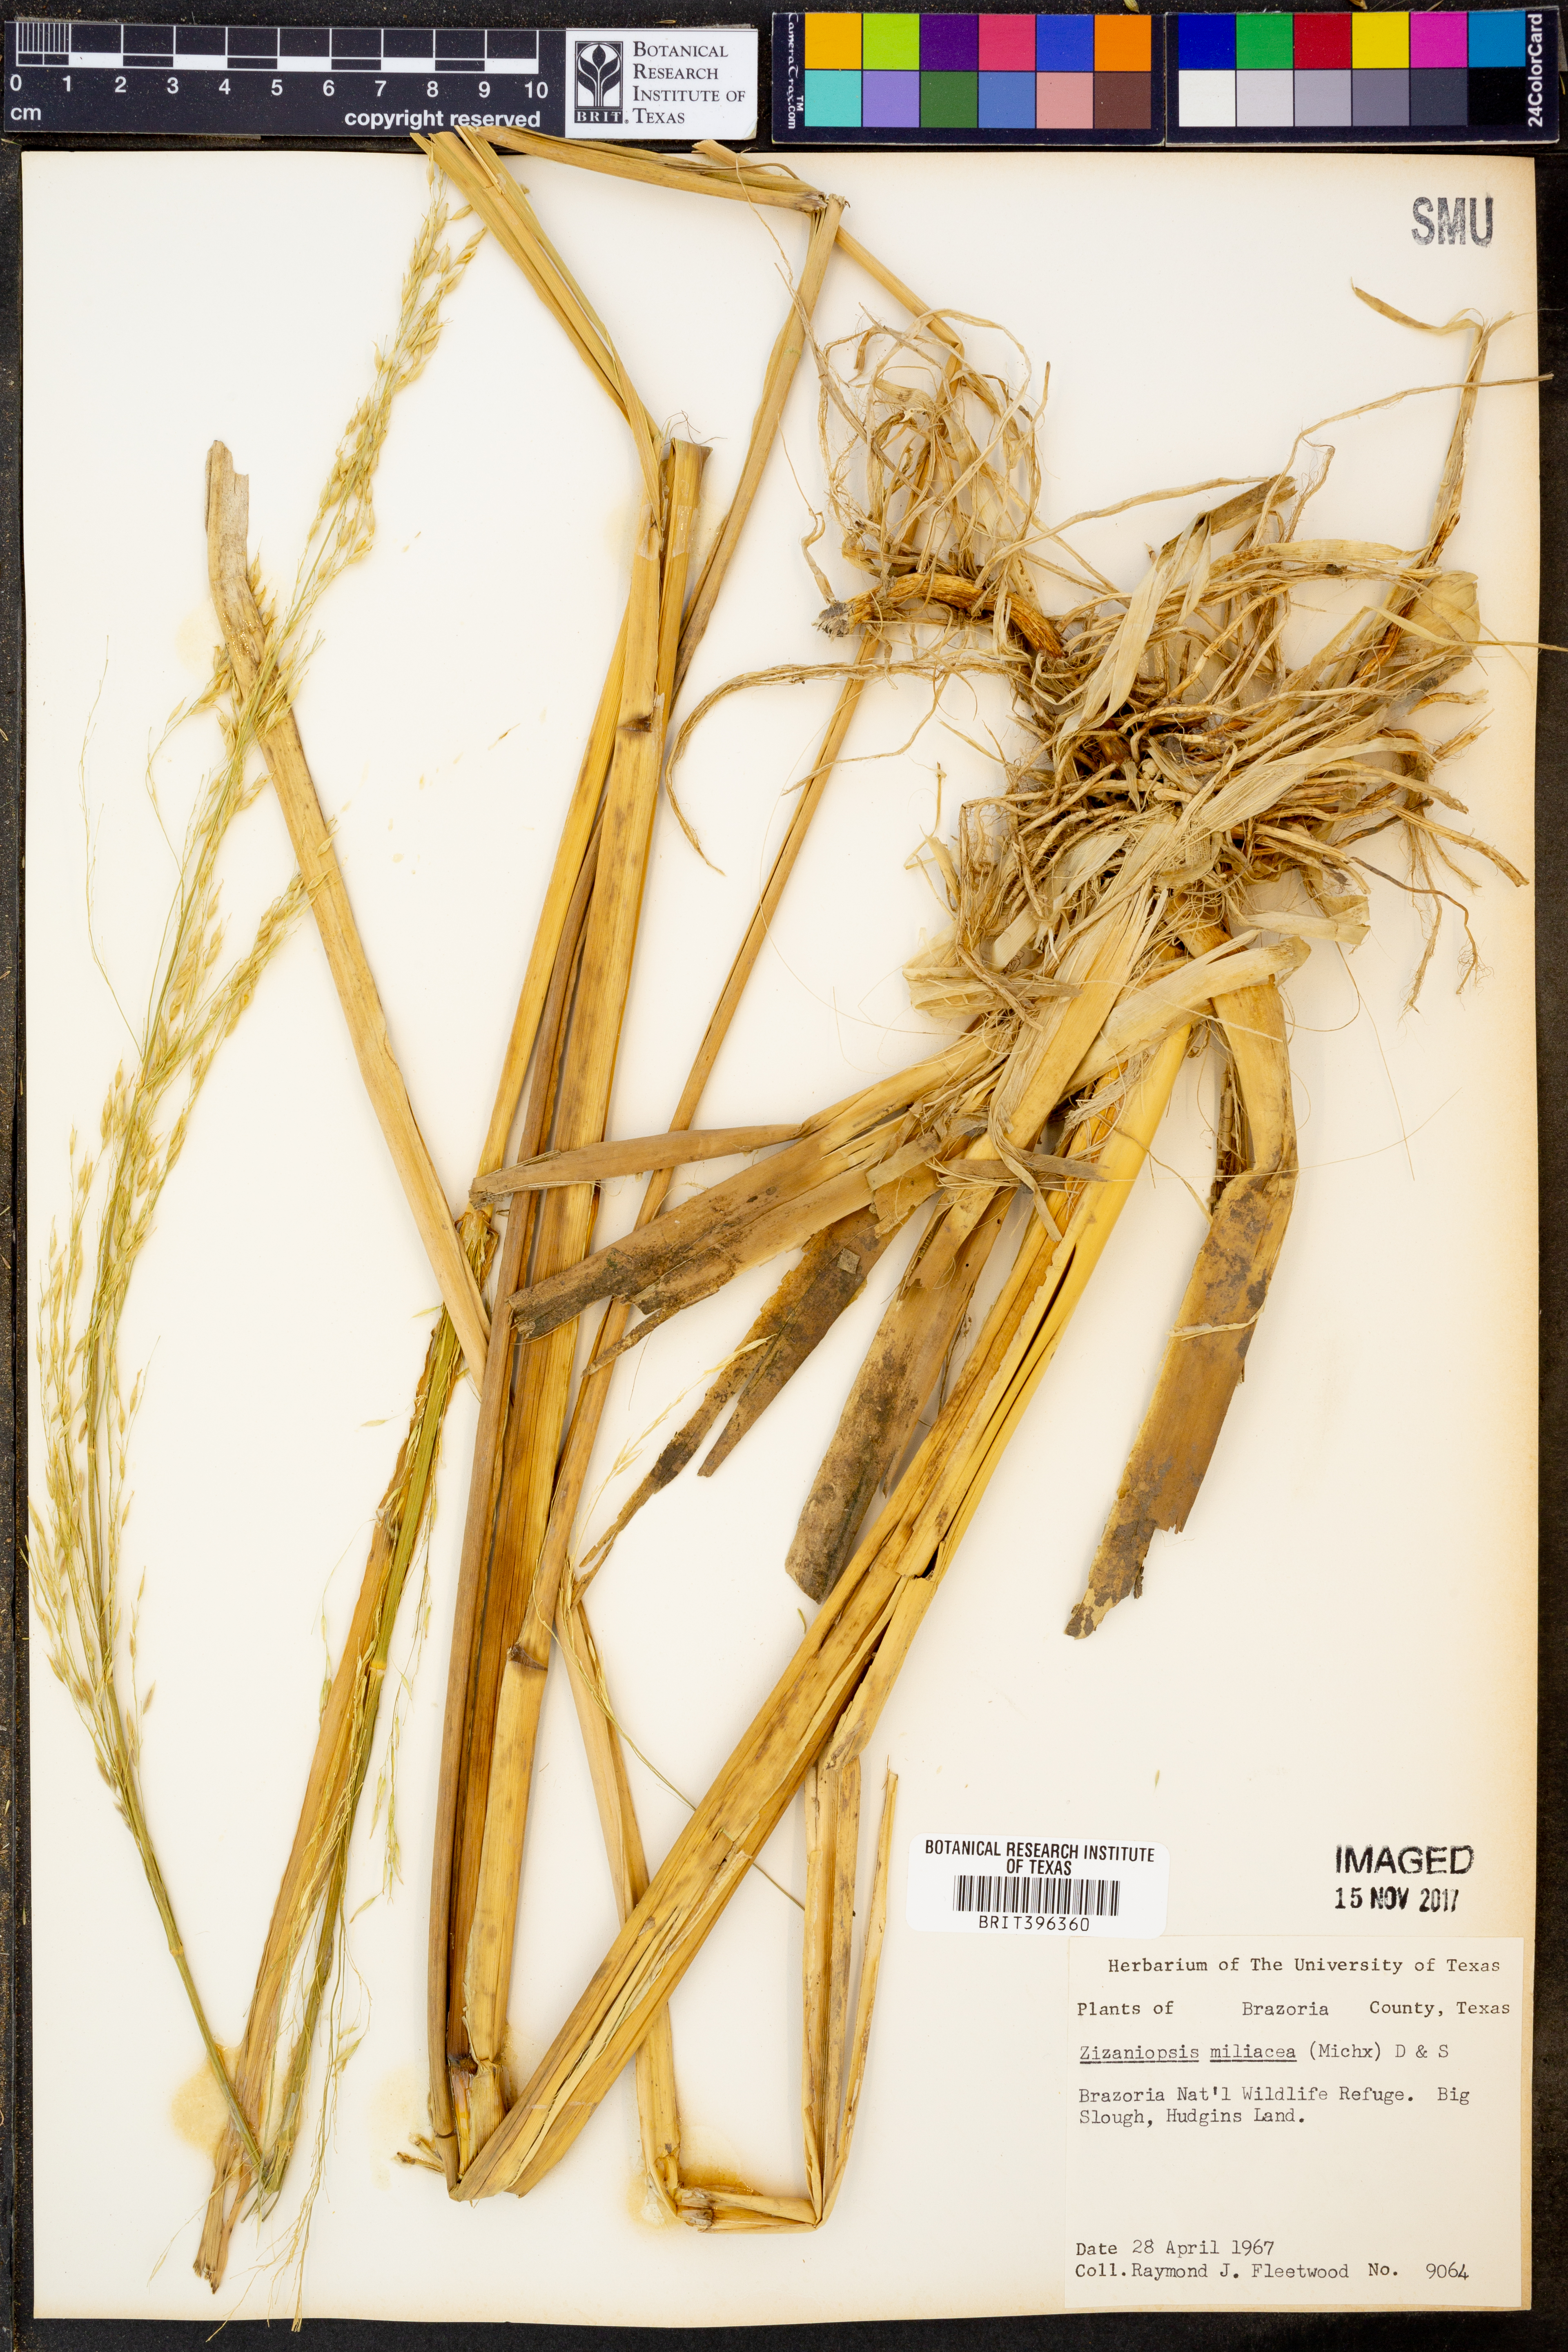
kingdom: Plantae
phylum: Tracheophyta
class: Liliopsida
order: Poales
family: Poaceae
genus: Zizaniopsis
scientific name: Zizaniopsis miliacea
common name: Giant-cutgrass
